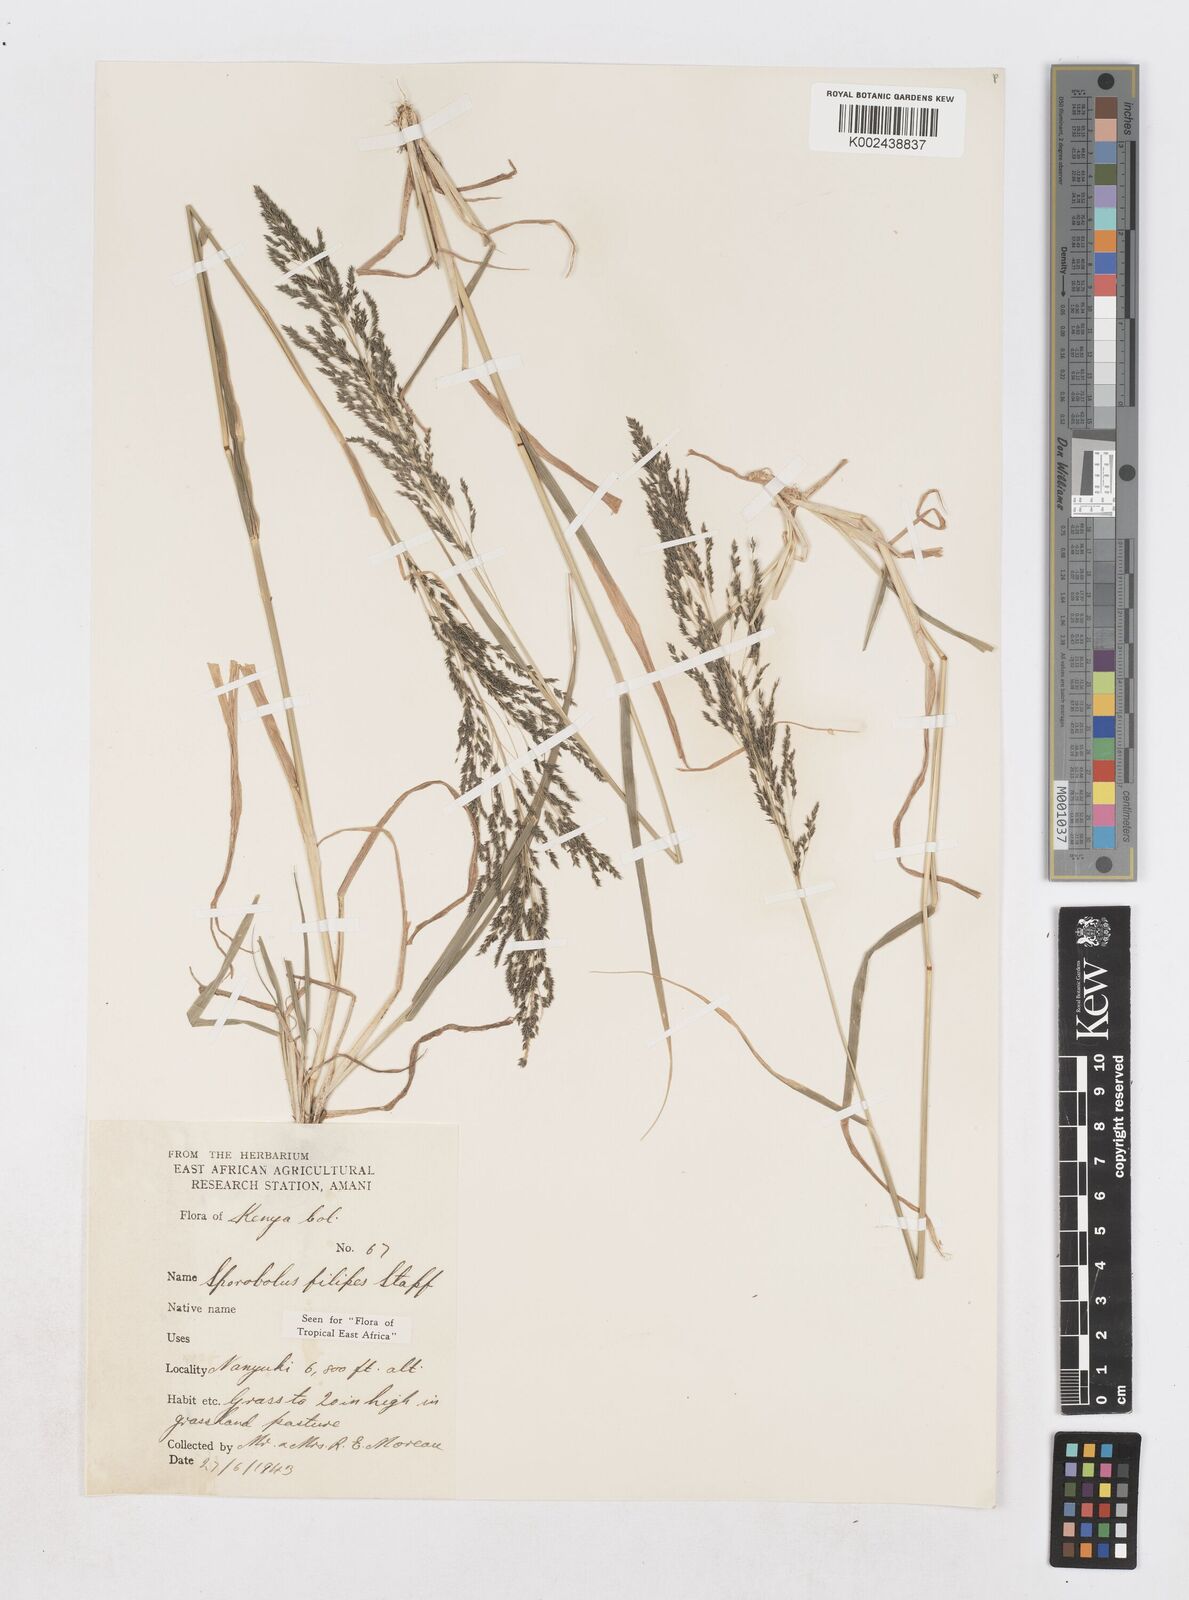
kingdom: Plantae
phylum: Tracheophyta
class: Liliopsida
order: Poales
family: Poaceae
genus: Sporobolus
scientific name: Sporobolus agrostoides
